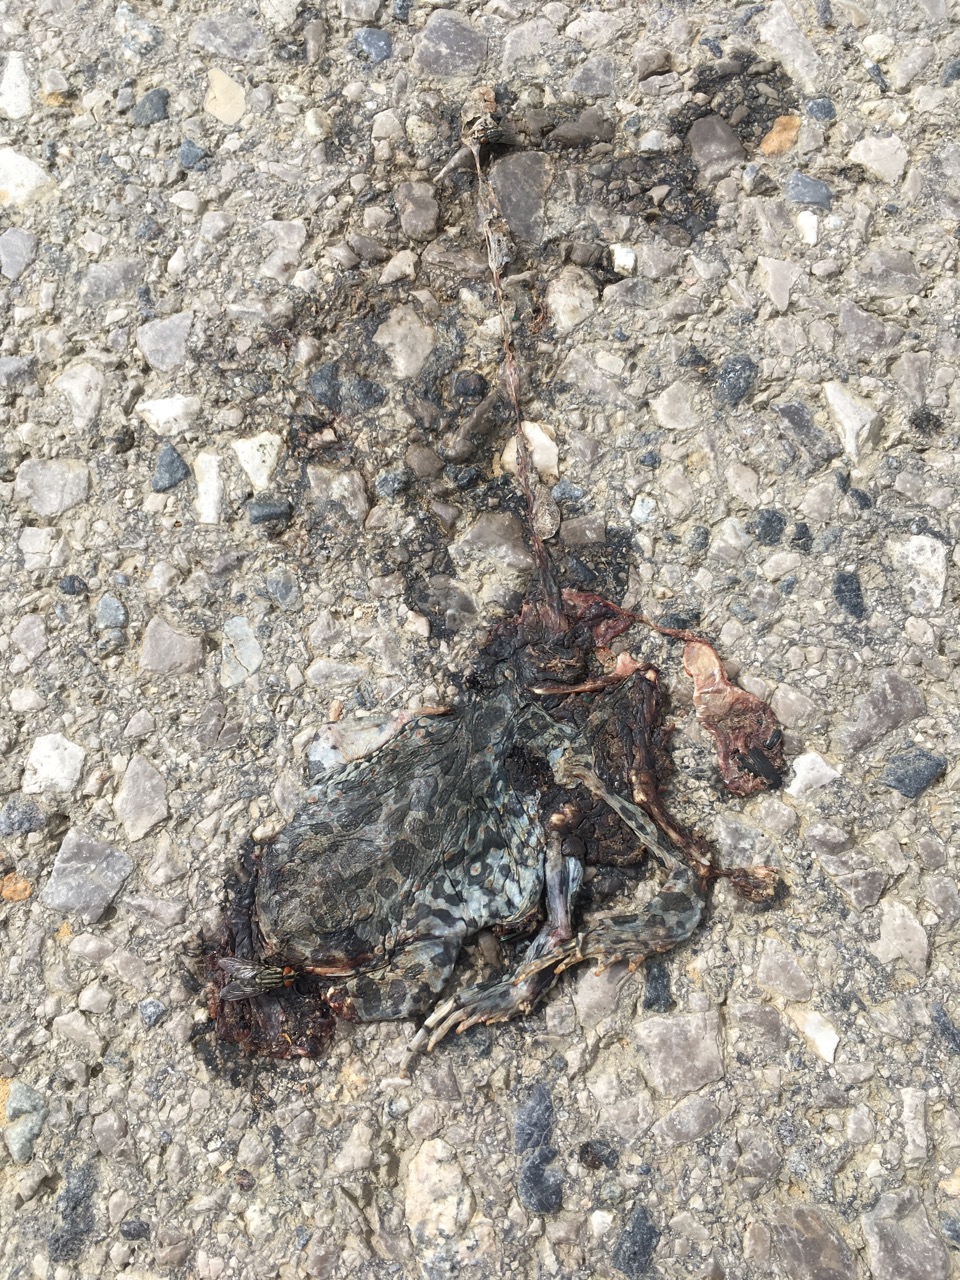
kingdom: Animalia
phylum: Chordata
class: Amphibia
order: Anura
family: Bufonidae
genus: Bufotes
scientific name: Bufotes viridis
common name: European green toad
